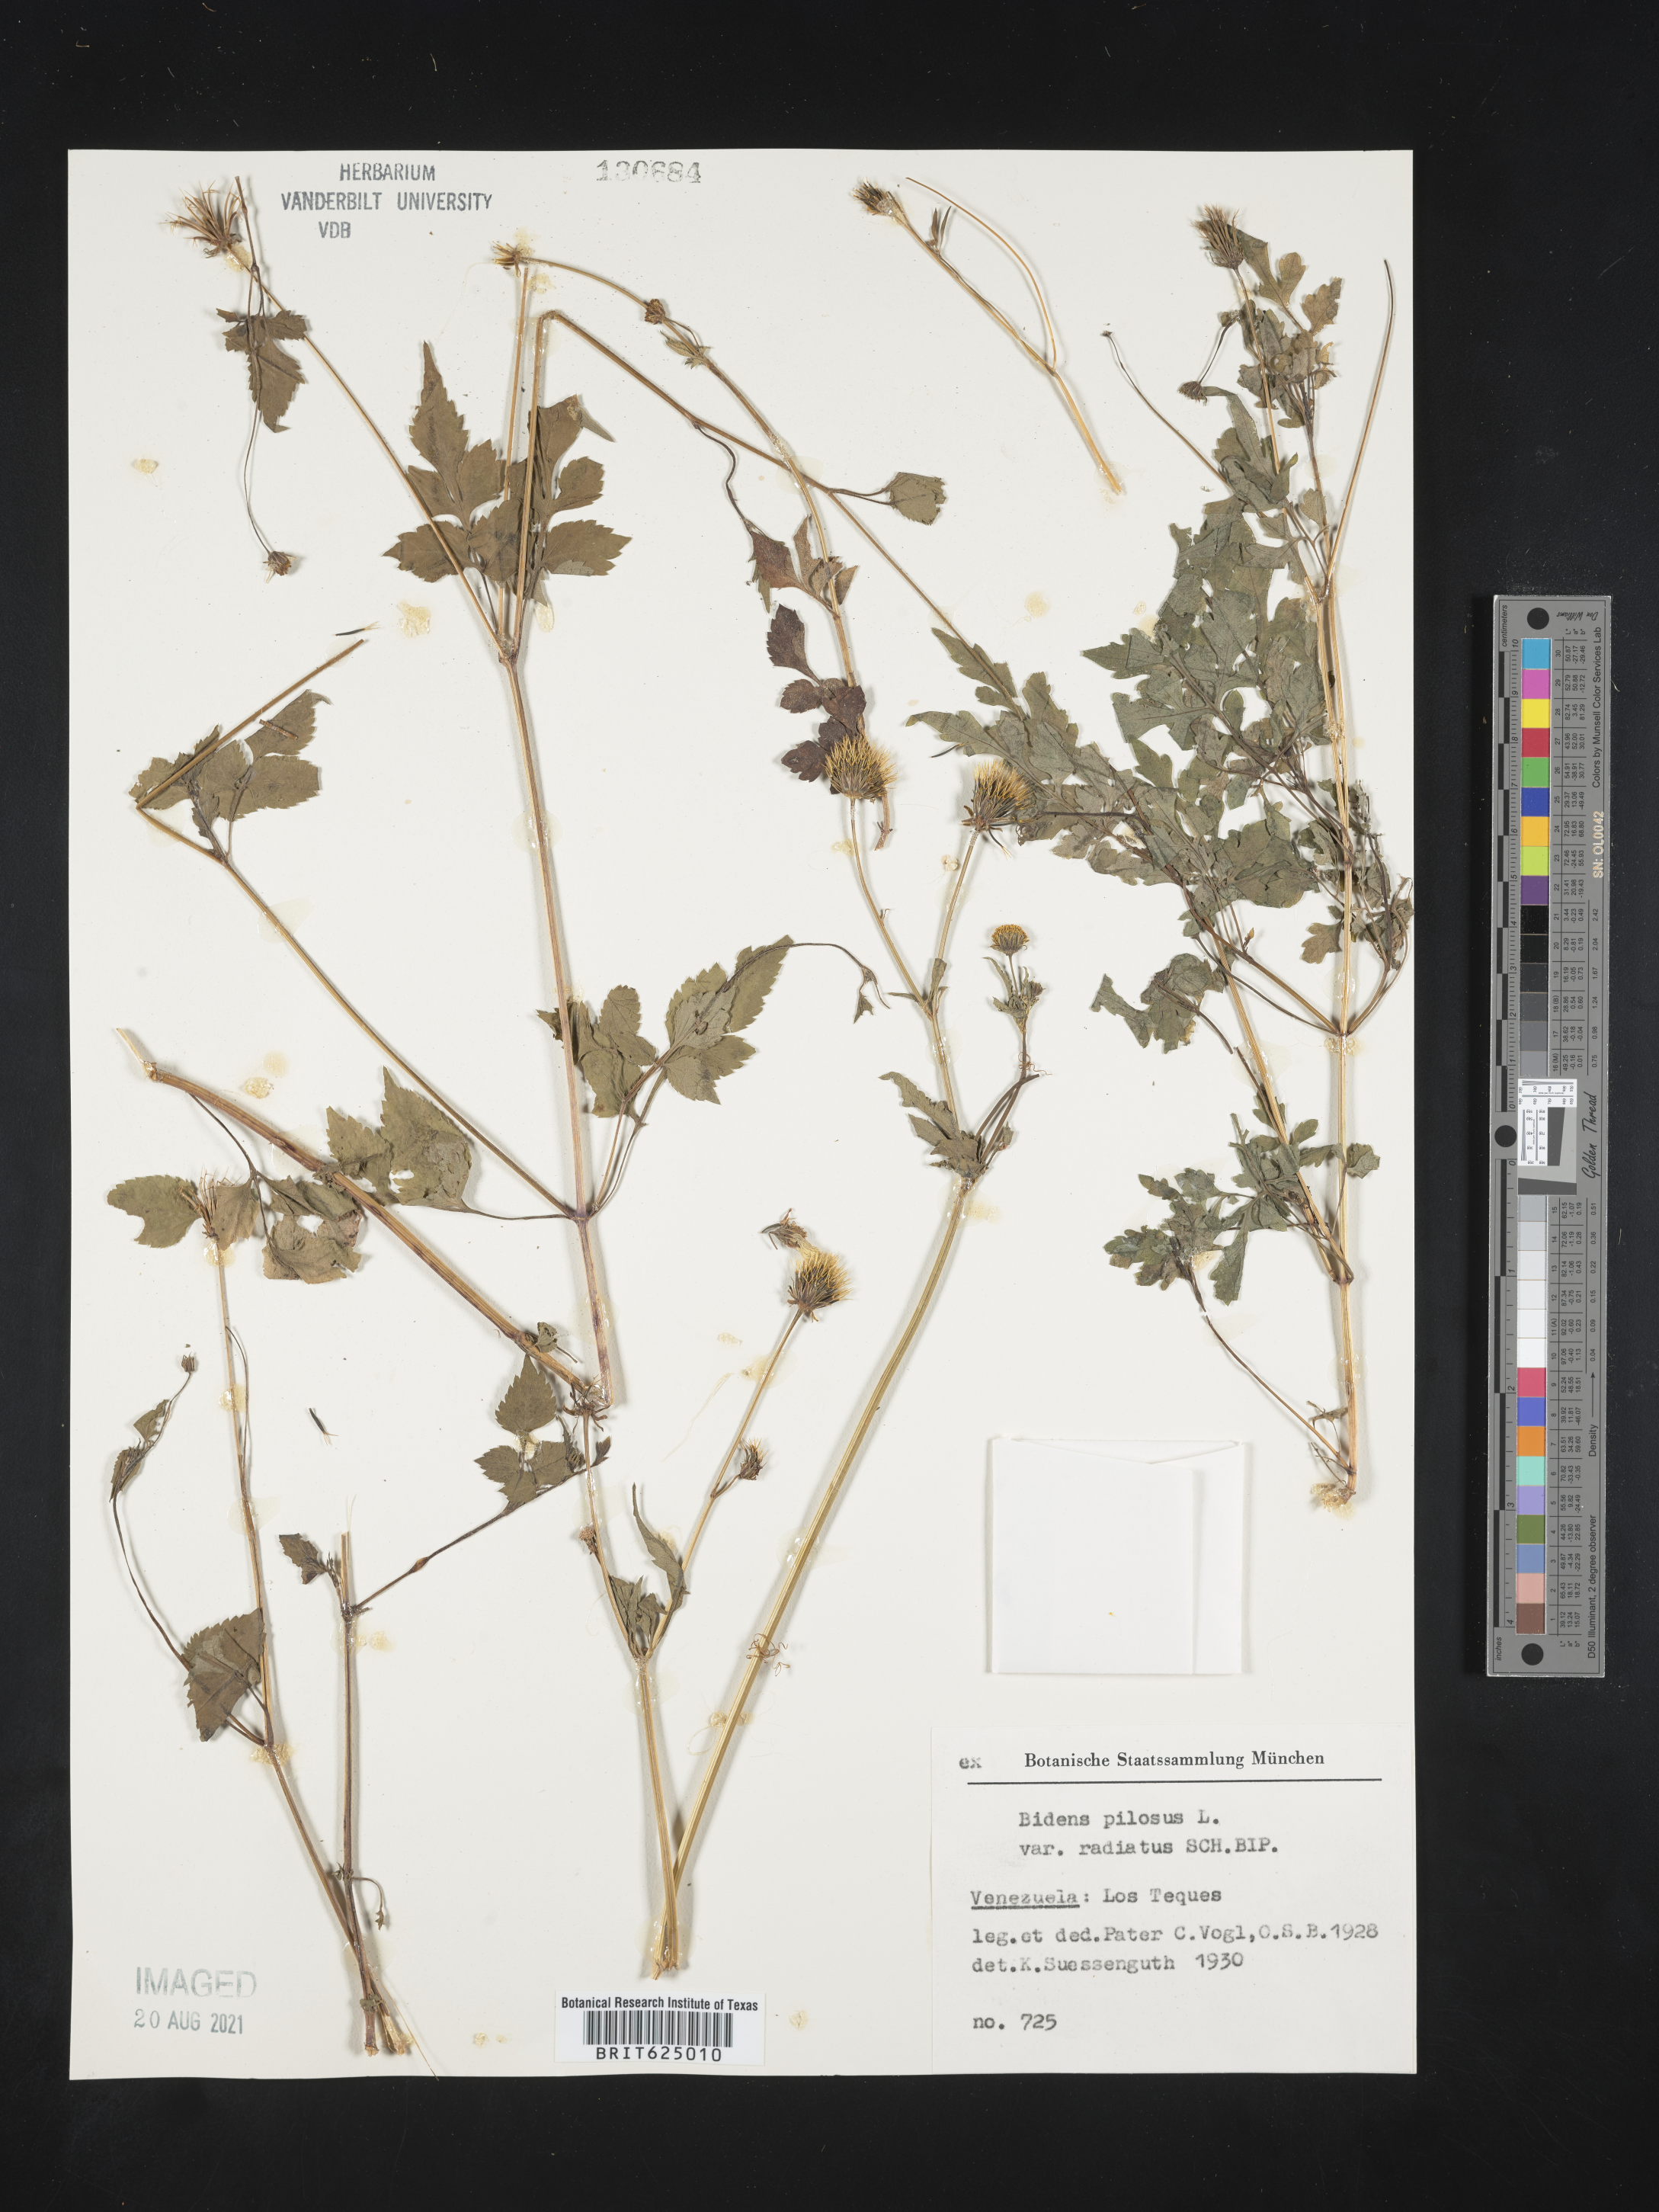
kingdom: Plantae
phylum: Tracheophyta
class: Magnoliopsida
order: Asterales
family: Asteraceae
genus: Bidens
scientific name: Bidens pilosa
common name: Black-jack
